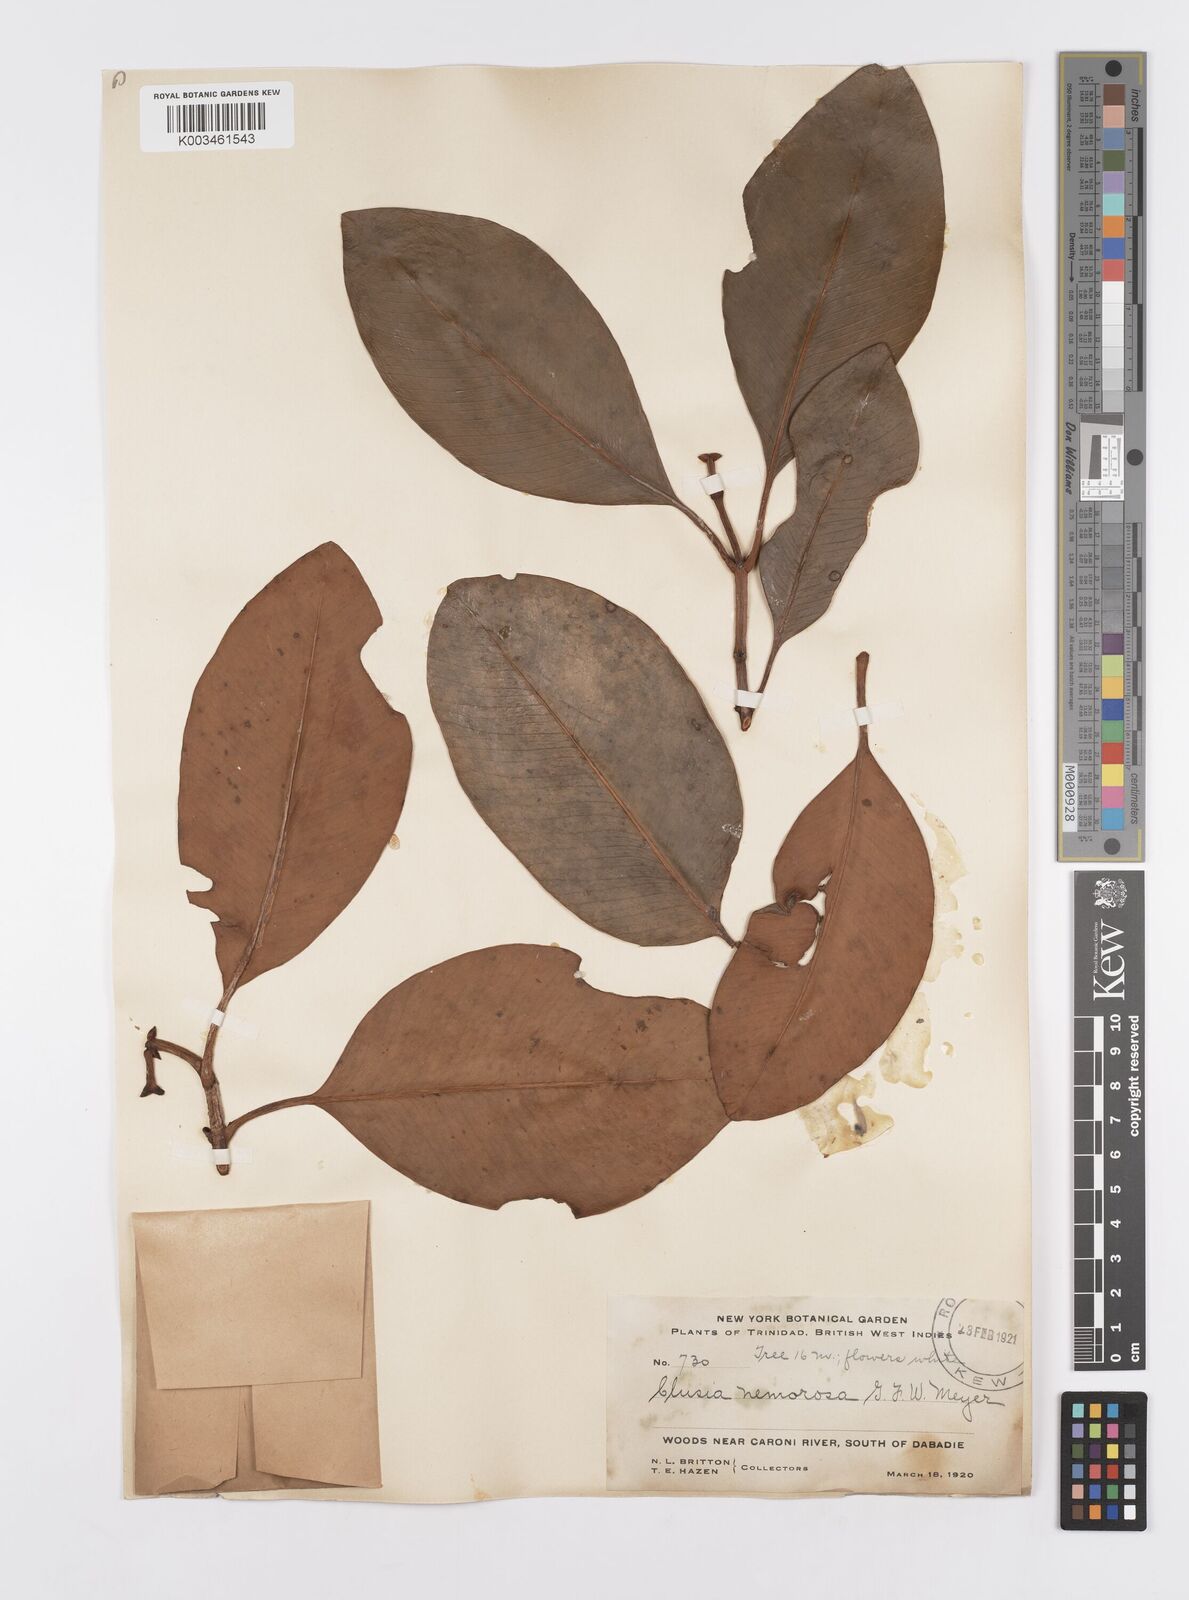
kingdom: Plantae
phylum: Tracheophyta
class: Magnoliopsida
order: Malpighiales
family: Clusiaceae
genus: Clusia
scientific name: Clusia nemorosa
